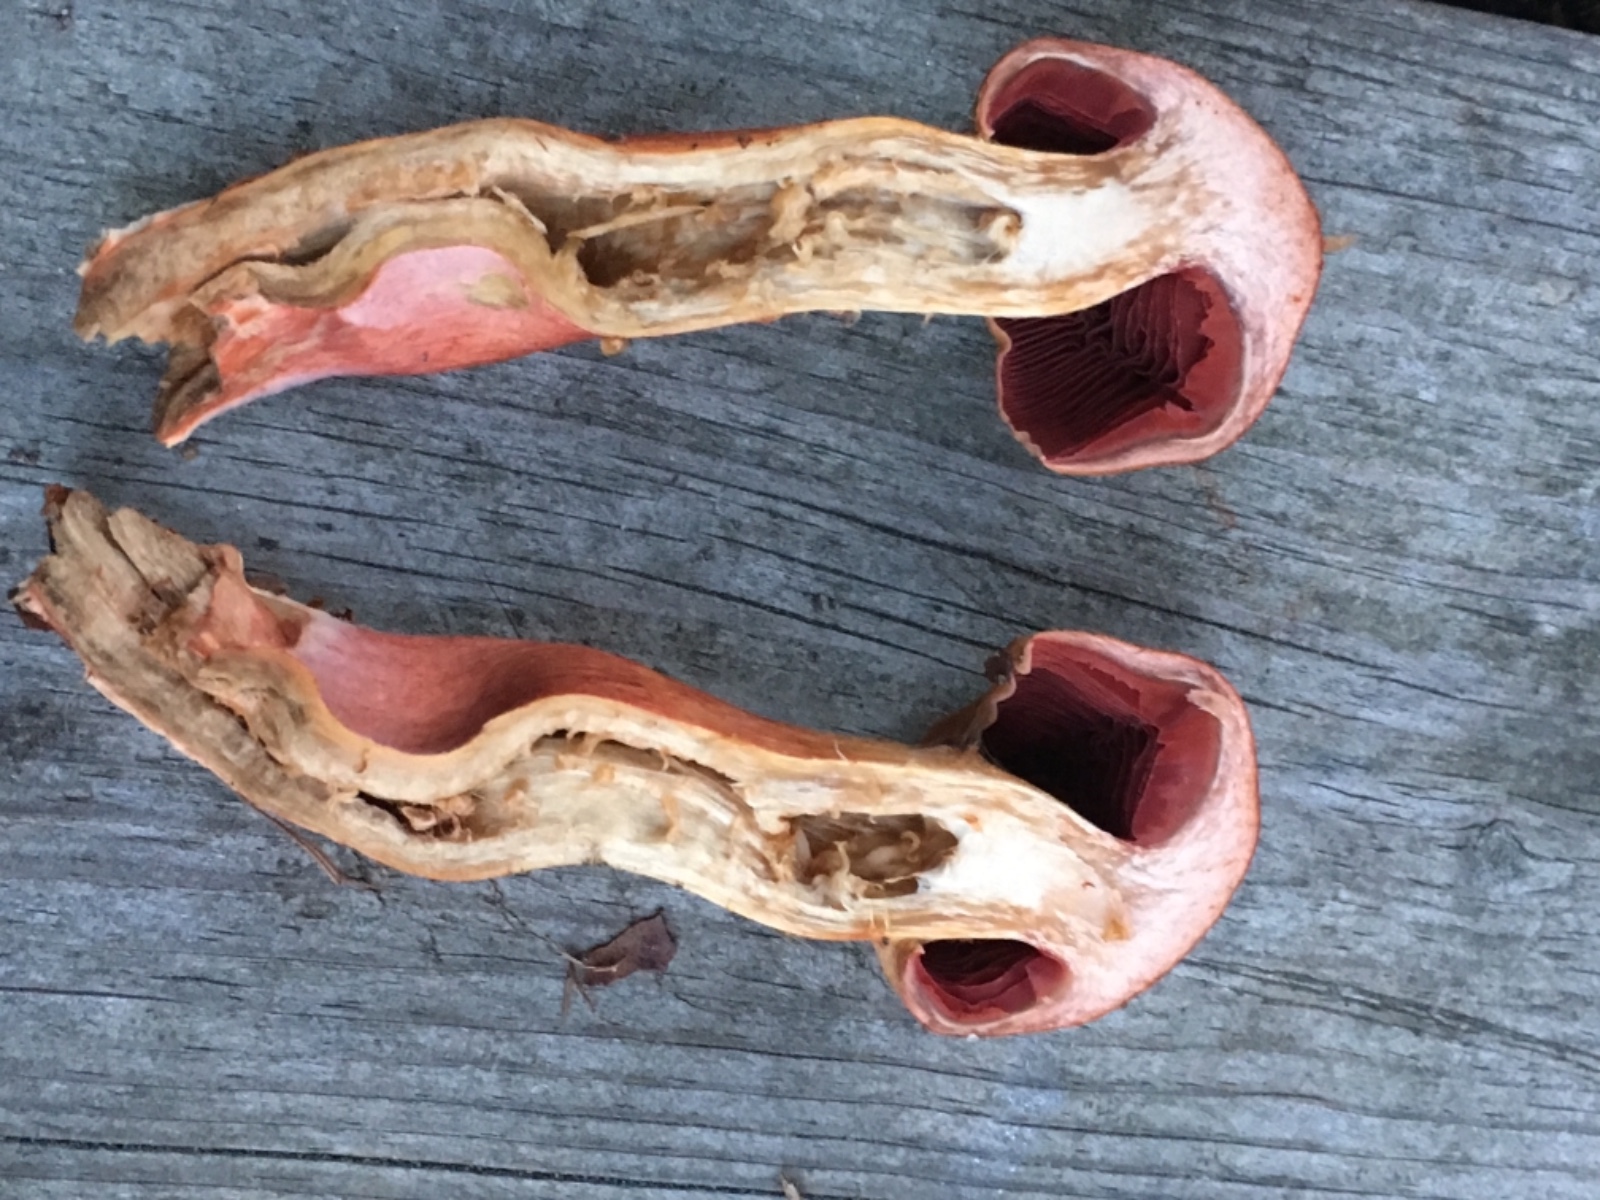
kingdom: Fungi
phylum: Basidiomycota
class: Agaricomycetes
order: Agaricales
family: Cortinariaceae
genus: Cortinarius
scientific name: Cortinarius purpureus
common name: brunrød slørhat
